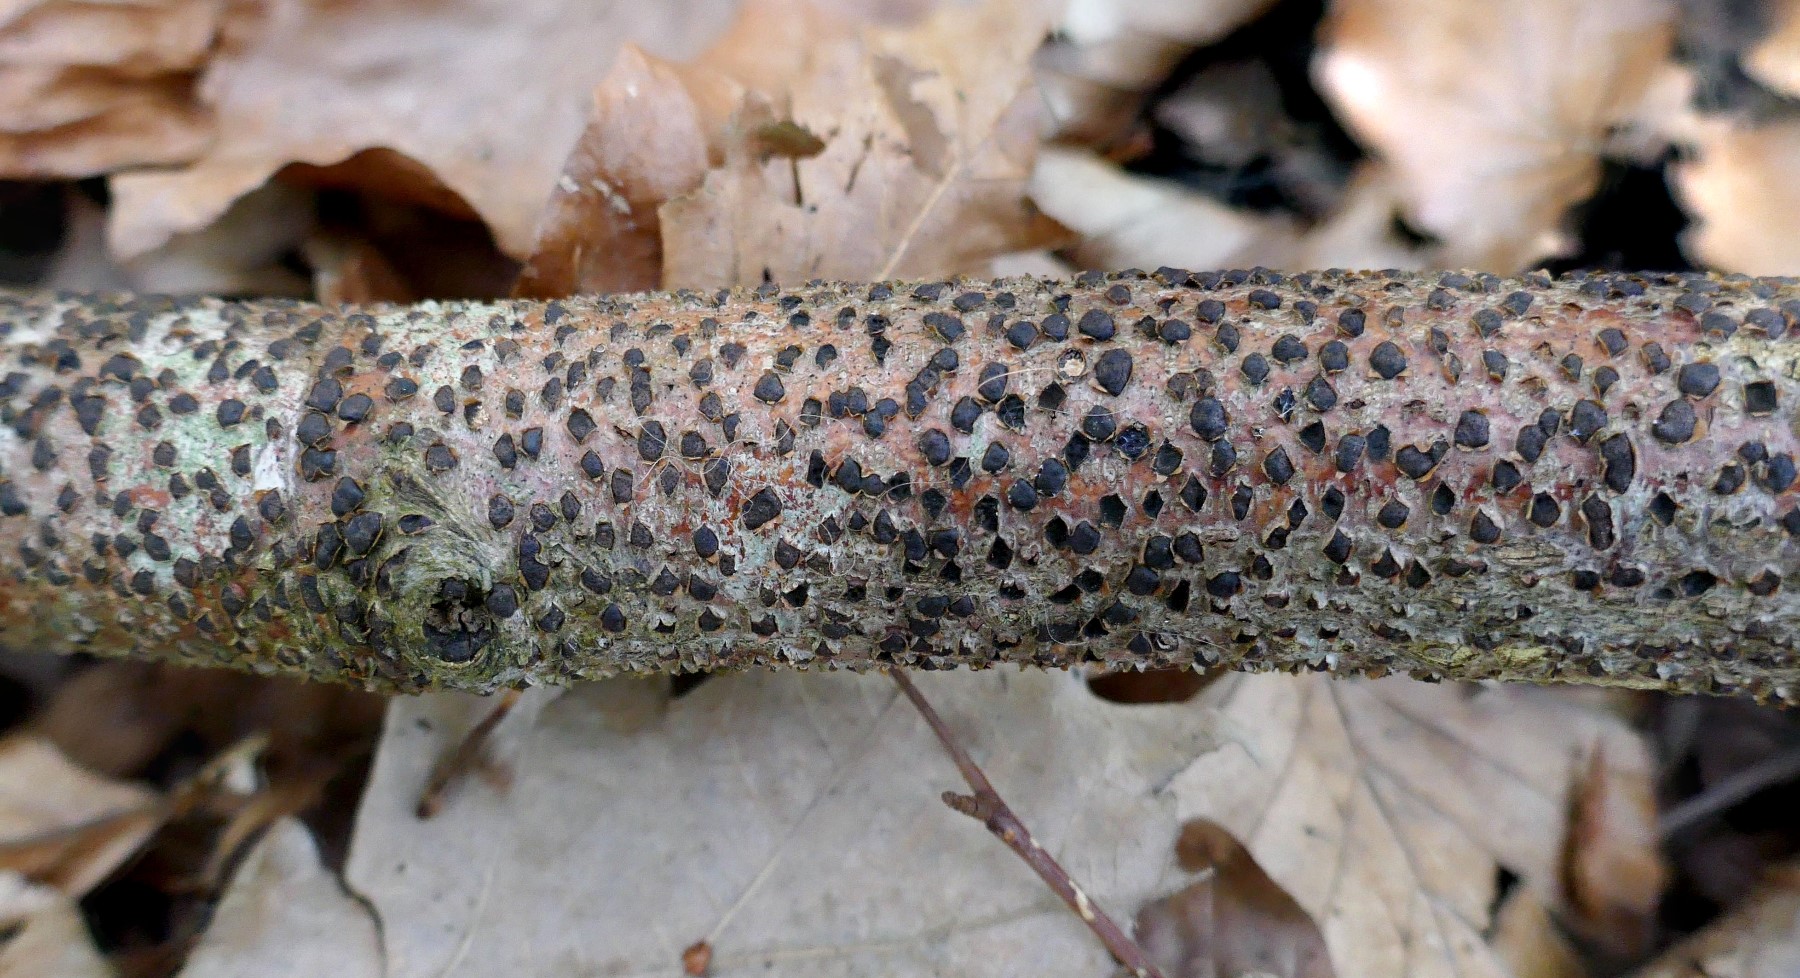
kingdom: Fungi
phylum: Ascomycota
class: Sordariomycetes
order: Xylariales
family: Diatrypaceae
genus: Diatrype
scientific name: Diatrype disciformis
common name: kant-kulskorpe
